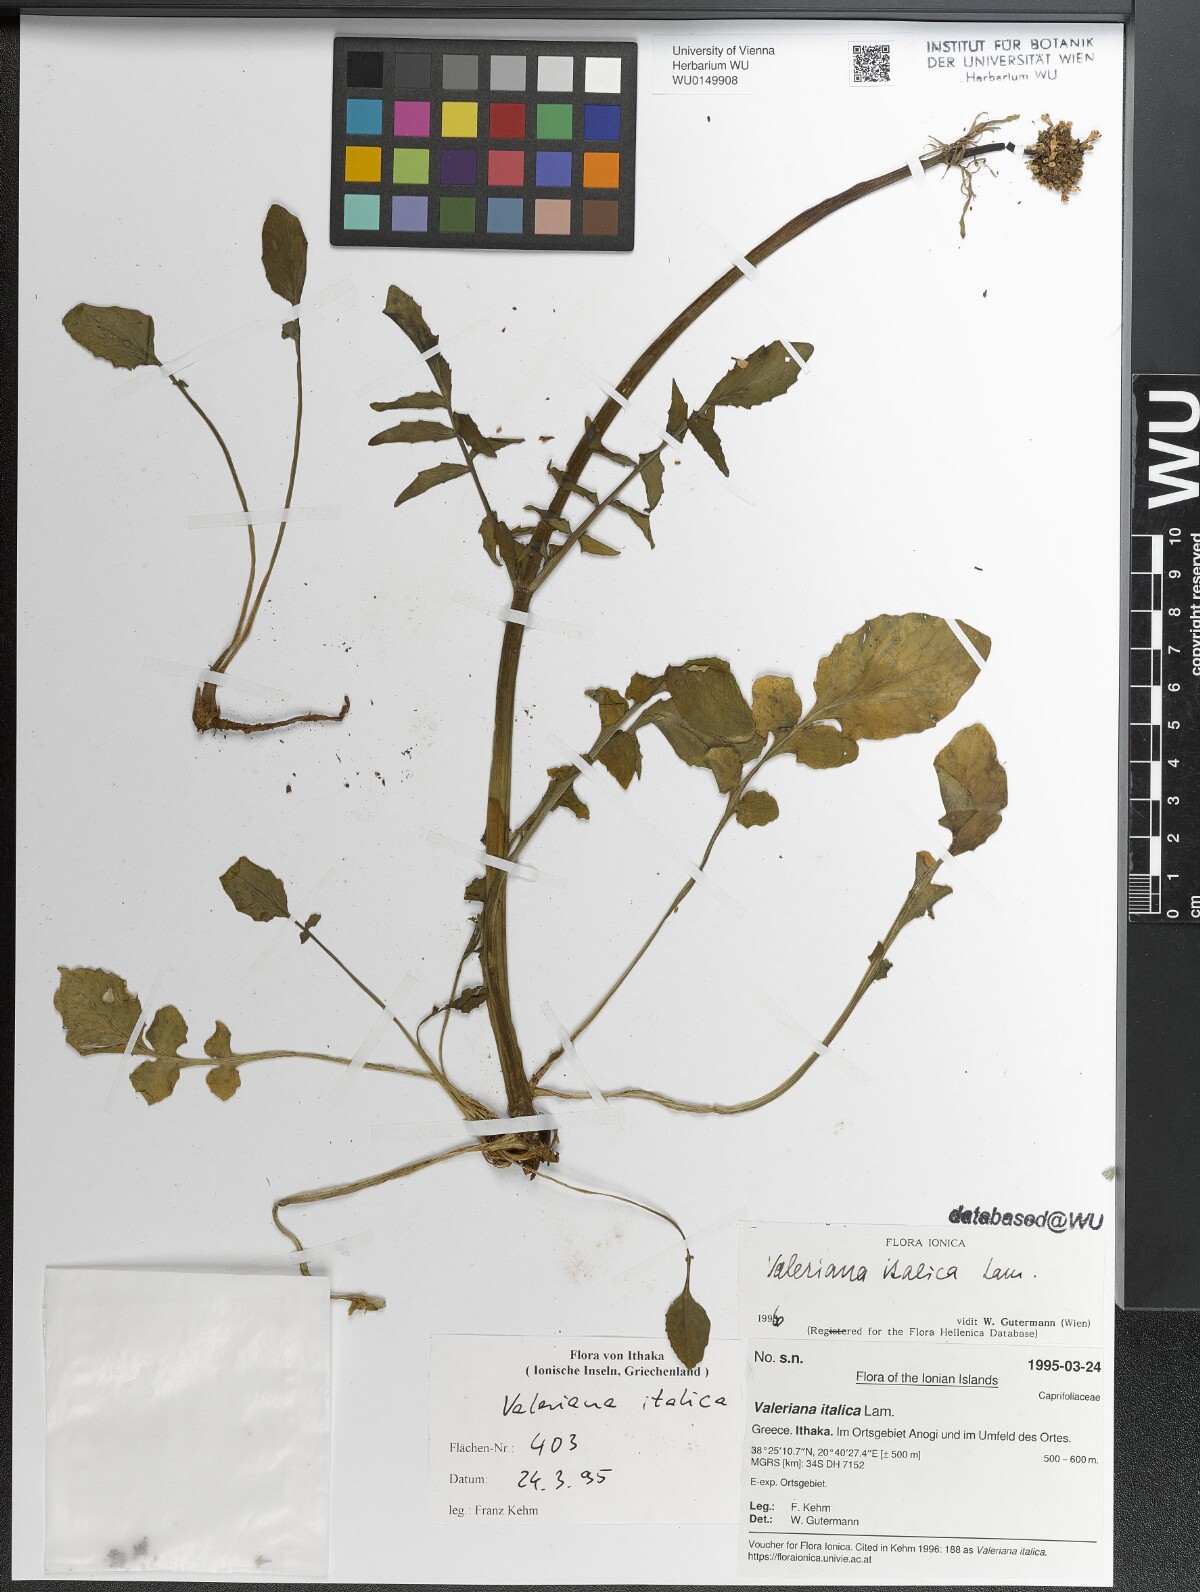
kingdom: Plantae
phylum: Tracheophyta
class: Magnoliopsida
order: Dipsacales
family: Caprifoliaceae
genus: Valeriana
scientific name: Valeriana dioscoridis
